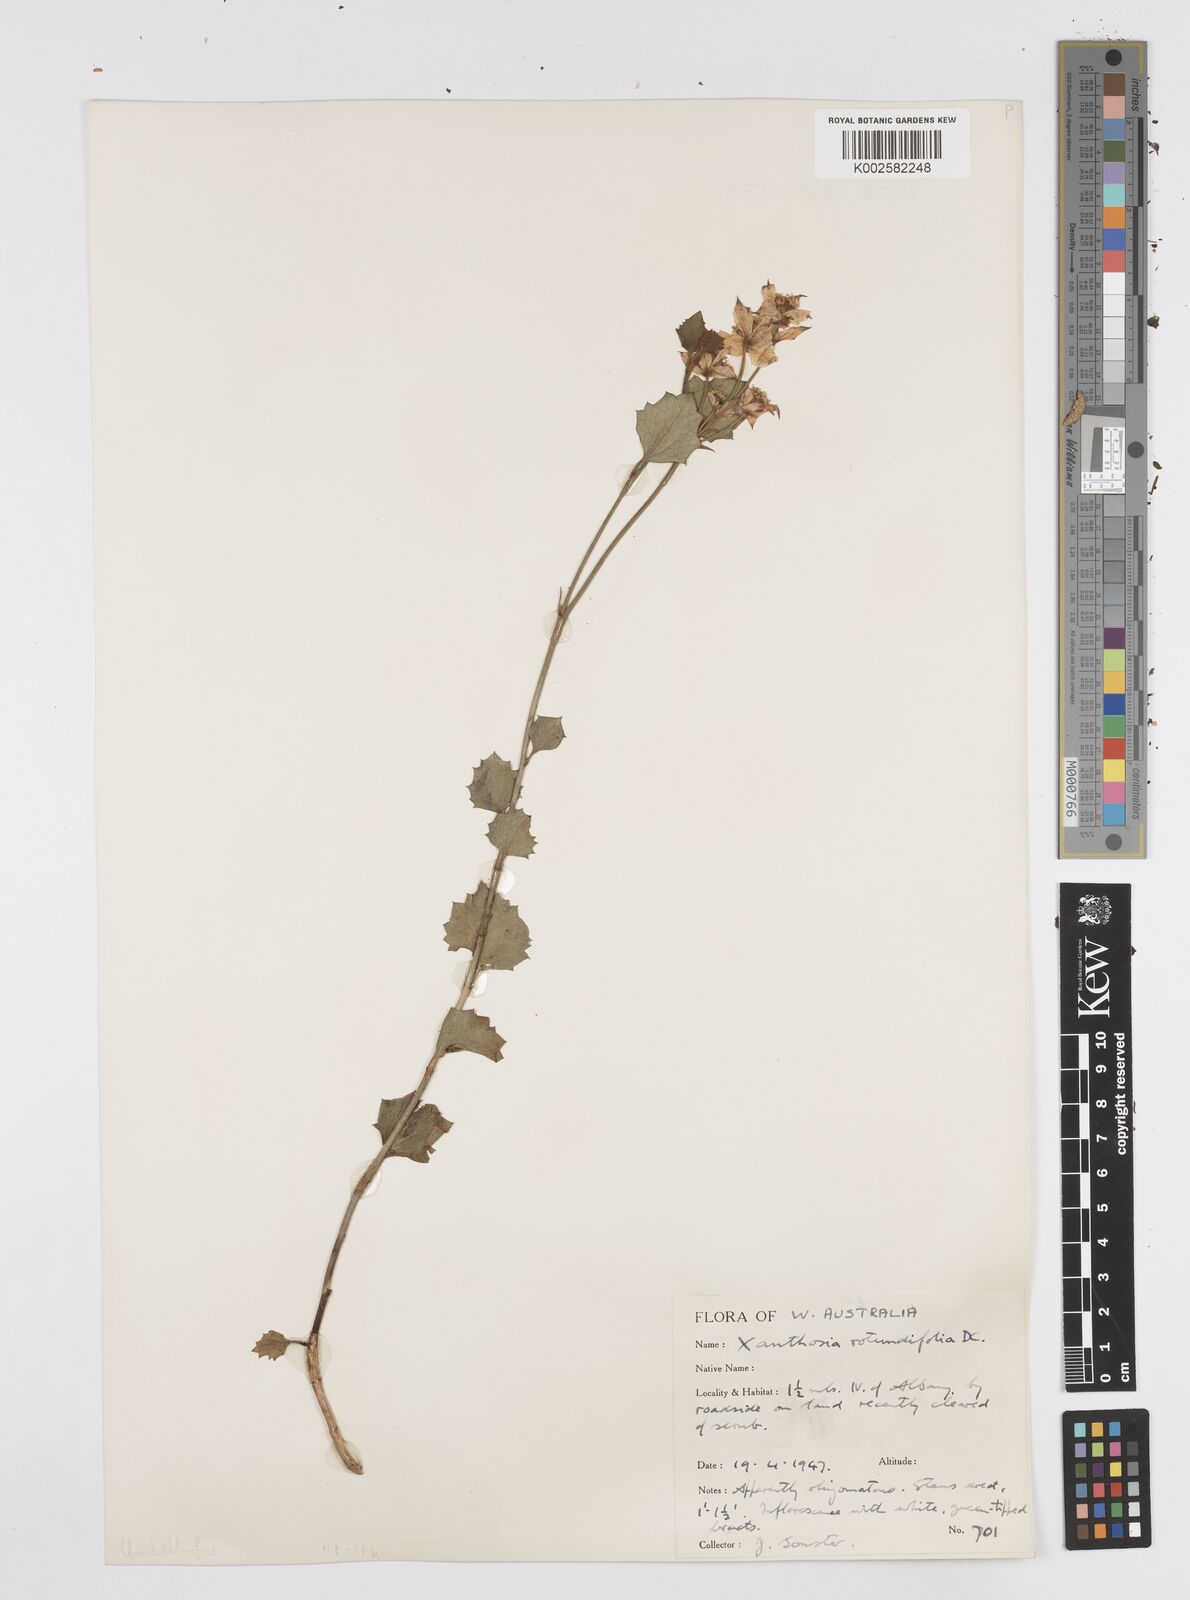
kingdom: Plantae
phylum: Tracheophyta
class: Magnoliopsida
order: Apiales
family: Apiaceae
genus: Xanthosia
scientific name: Xanthosia rotundifolia
